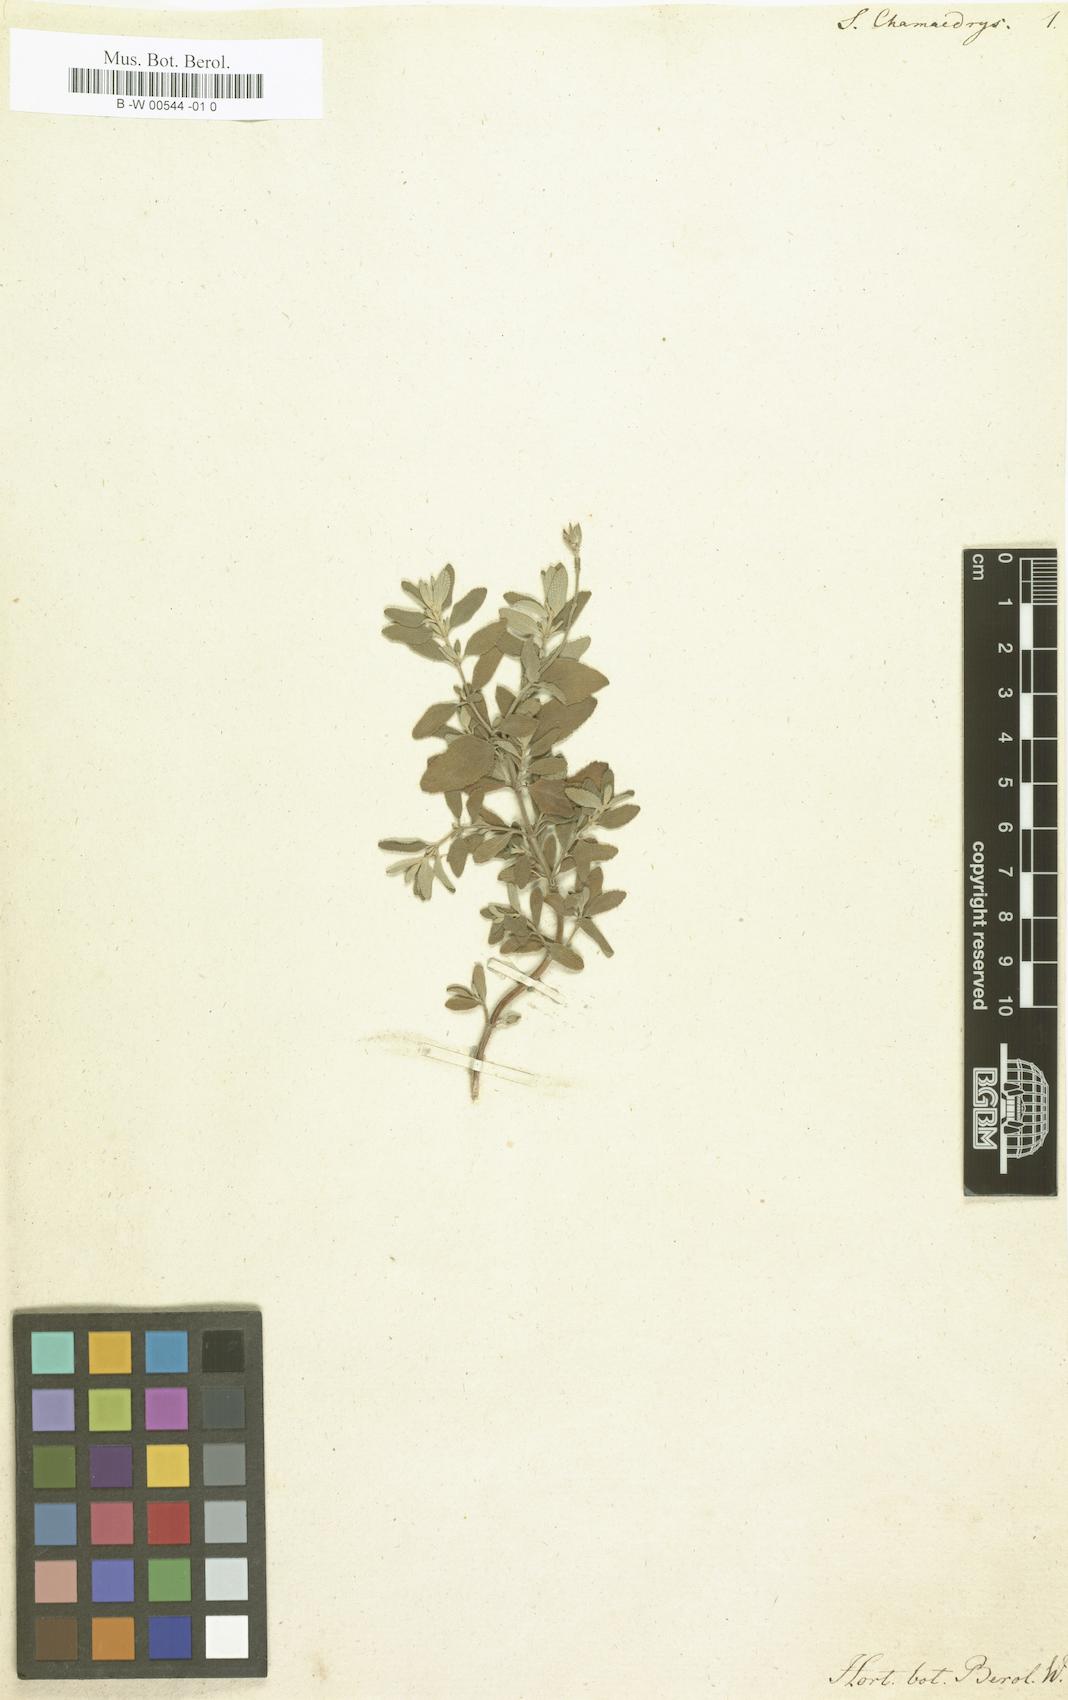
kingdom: Plantae
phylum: Tracheophyta
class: Magnoliopsida
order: Lamiales
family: Lamiaceae
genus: Salvia
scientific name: Salvia chamaedryoides
